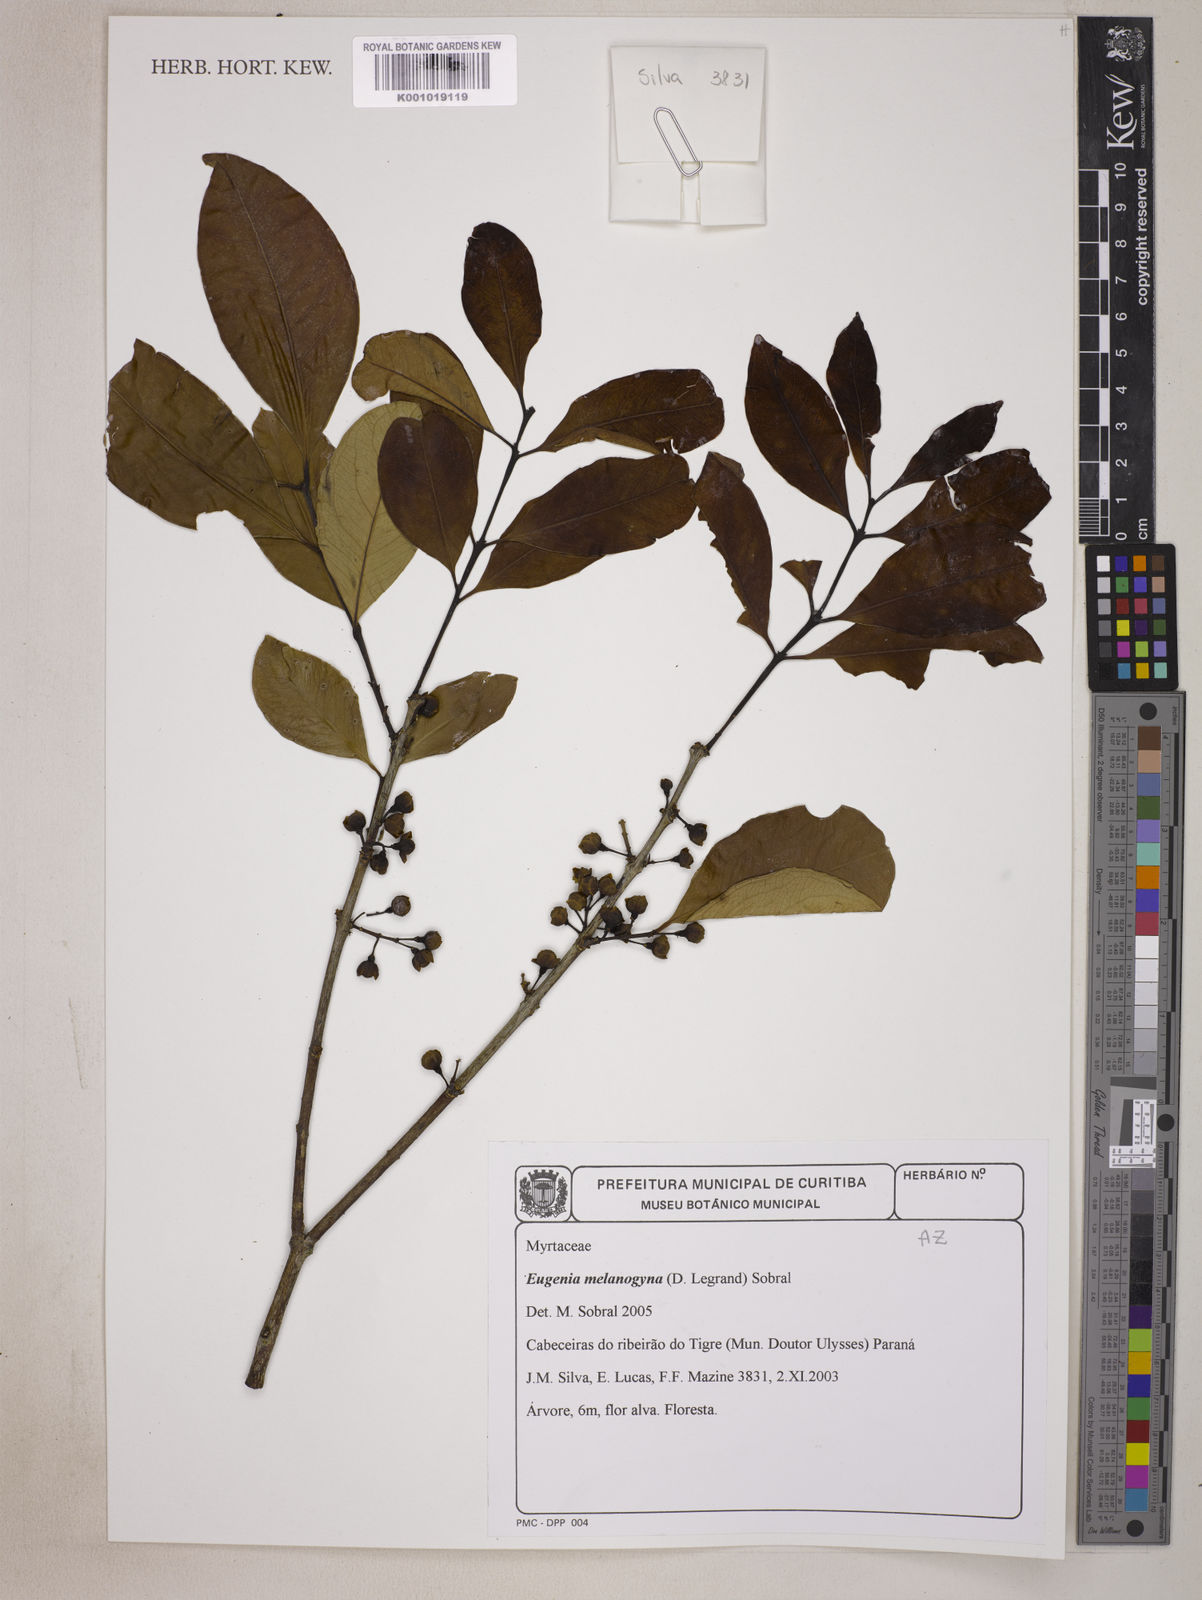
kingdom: Plantae
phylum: Tracheophyta
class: Magnoliopsida
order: Myrtales
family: Myrtaceae
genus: Eugenia
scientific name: Eugenia melanogyna
